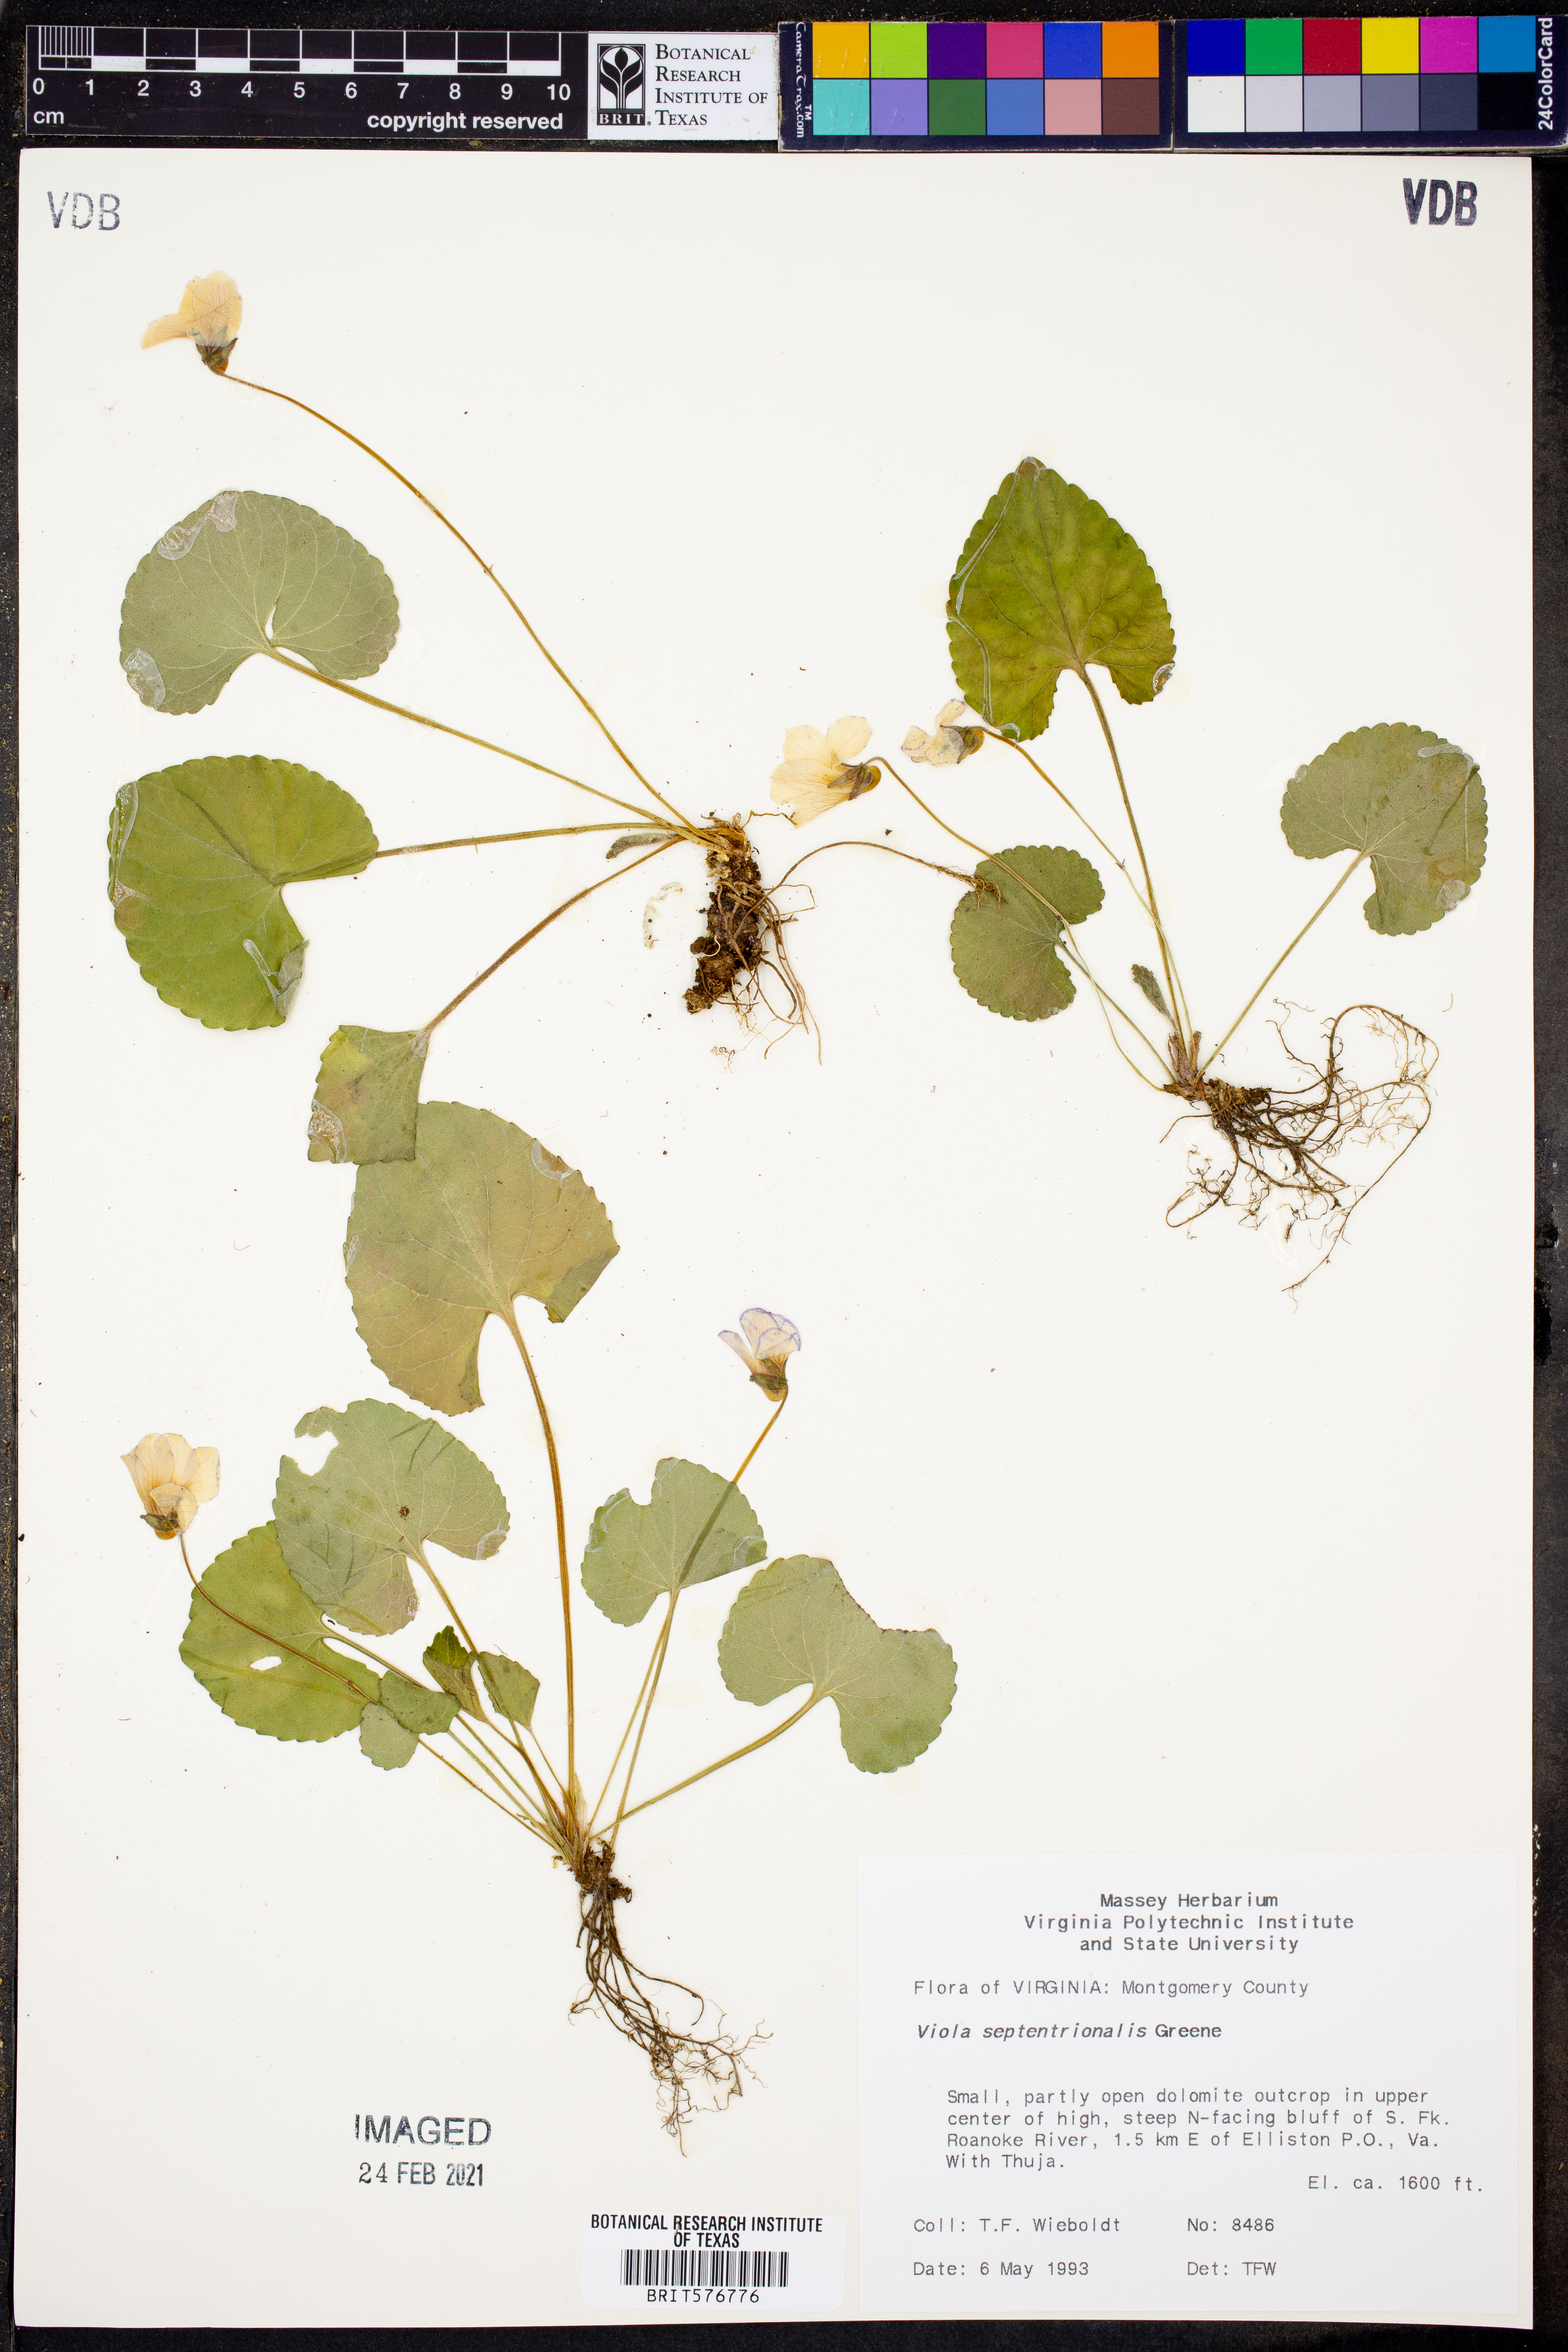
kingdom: Plantae
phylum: Tracheophyta
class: Magnoliopsida
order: Malpighiales
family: Violaceae
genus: Viola
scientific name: Viola septentrionalis
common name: Northern woodland violet
